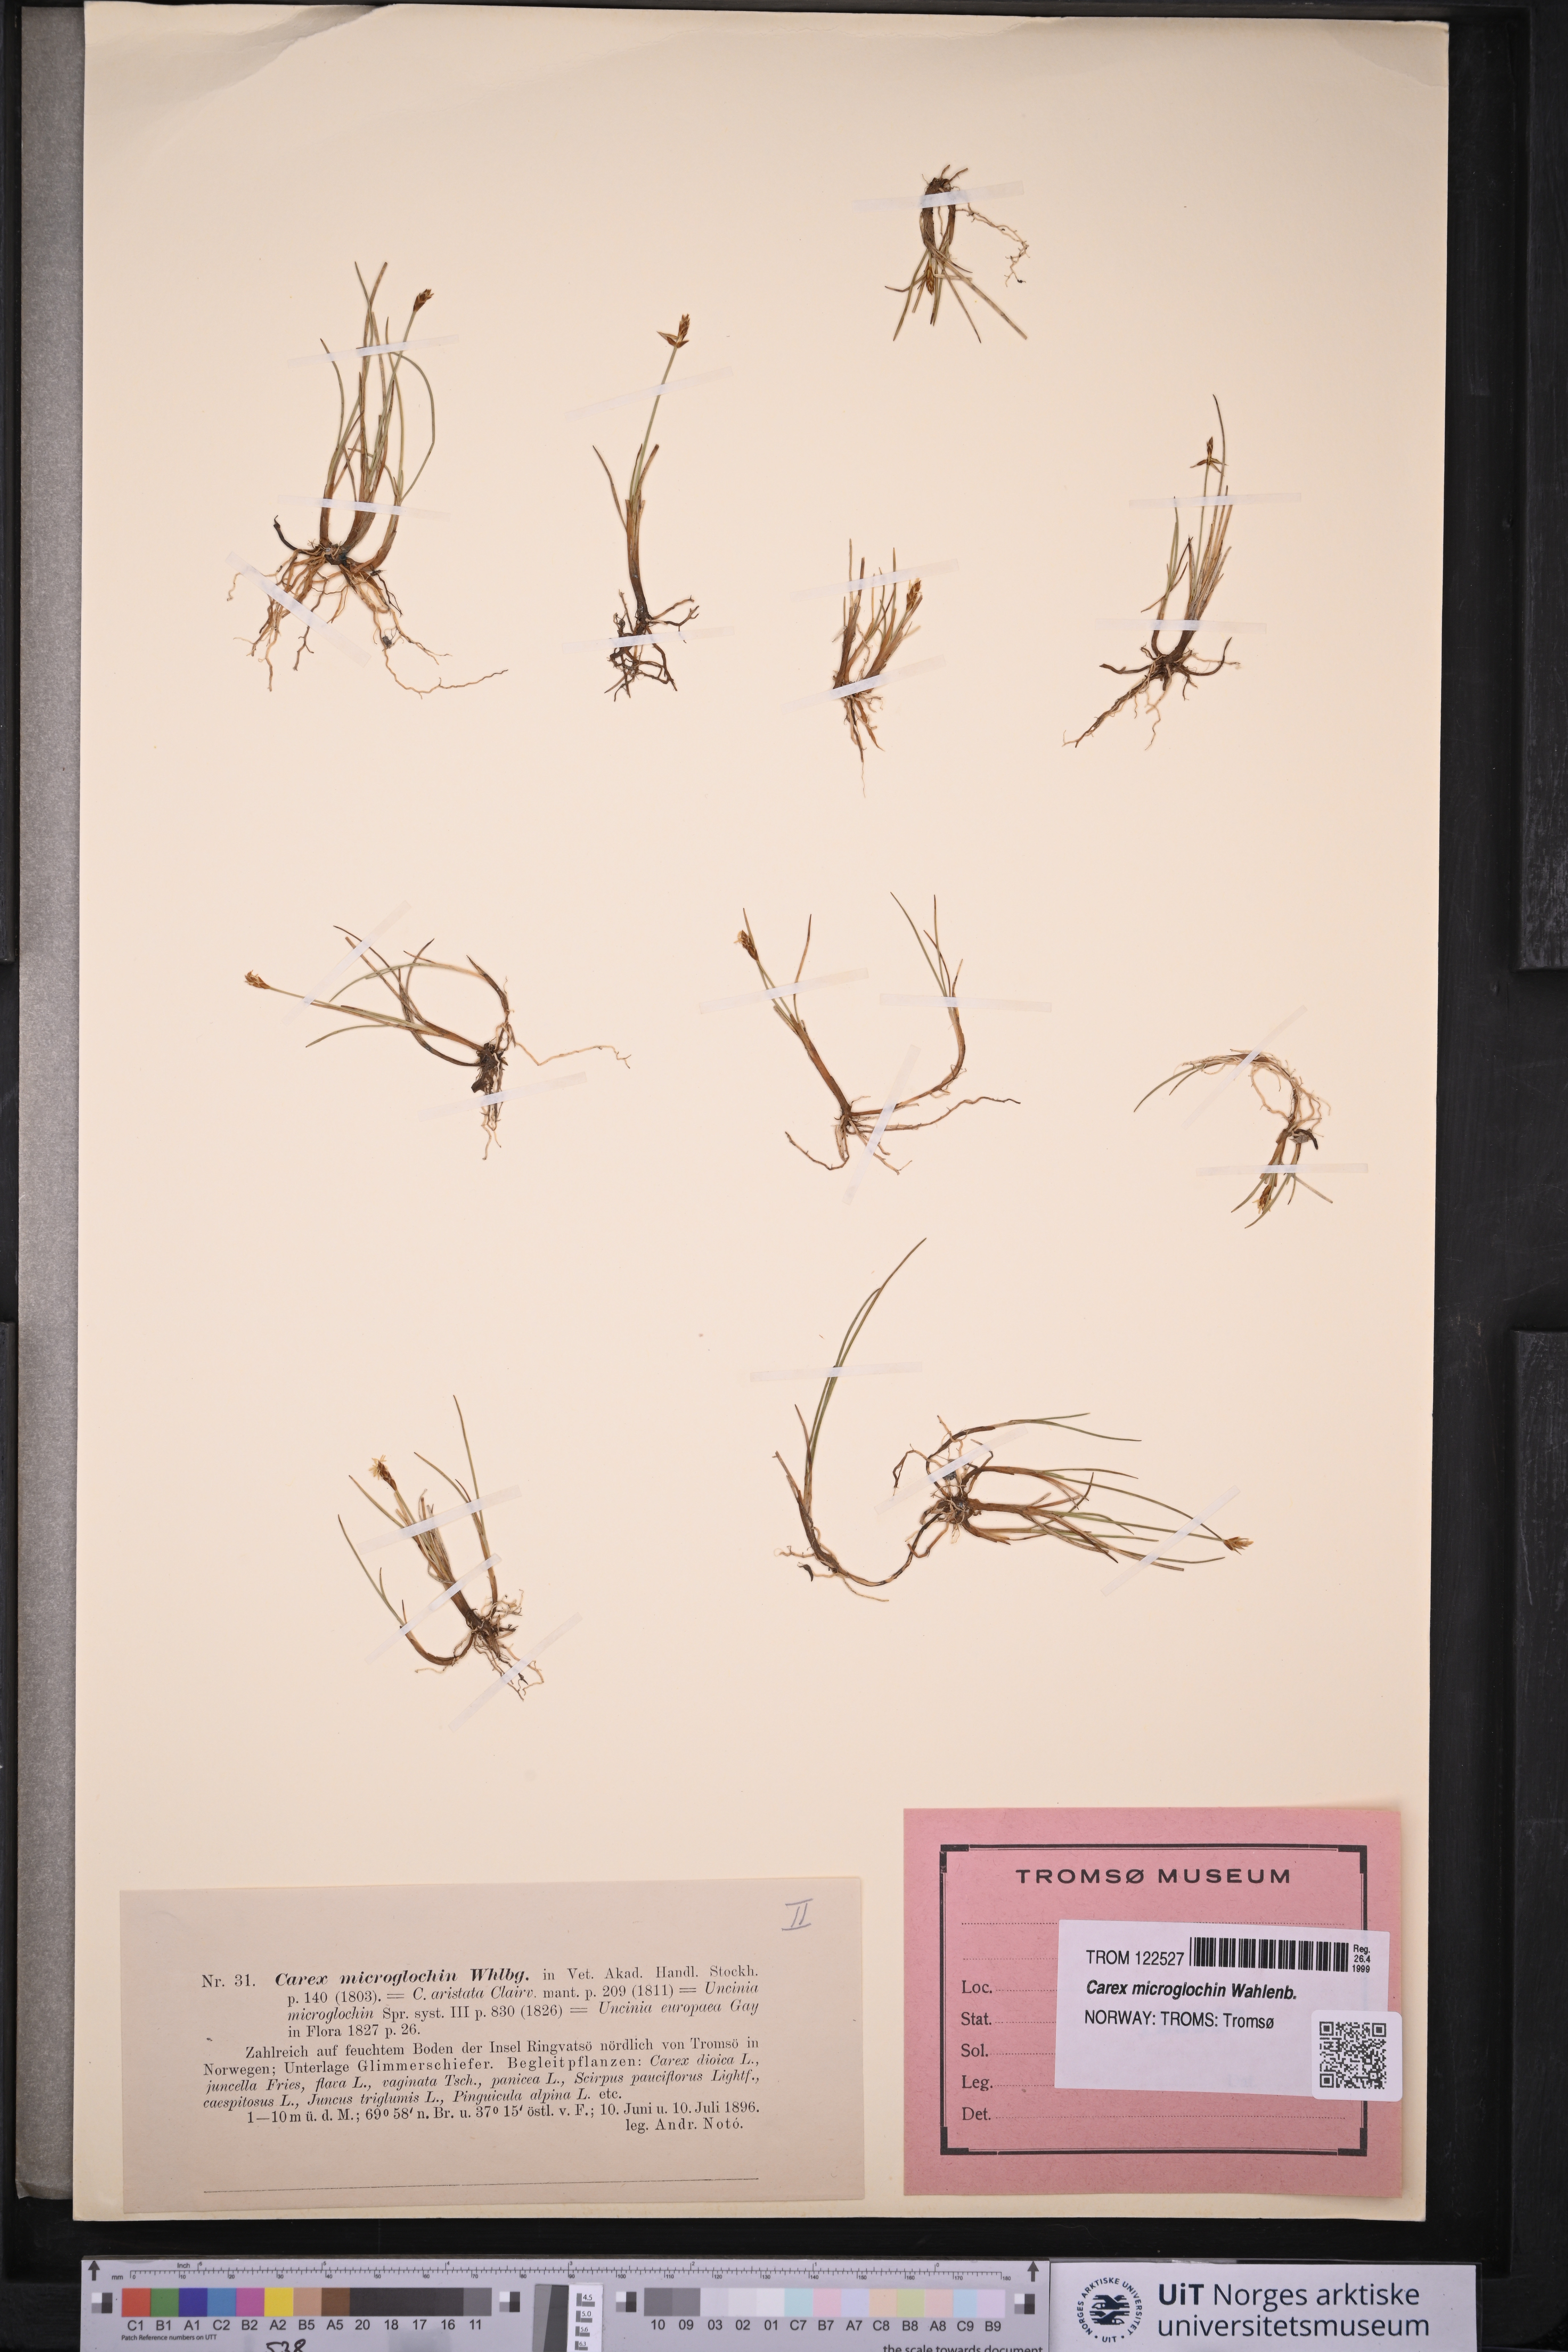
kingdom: Plantae
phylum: Tracheophyta
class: Liliopsida
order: Poales
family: Cyperaceae
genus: Carex
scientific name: Carex microglochin
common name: Bristle sedge
